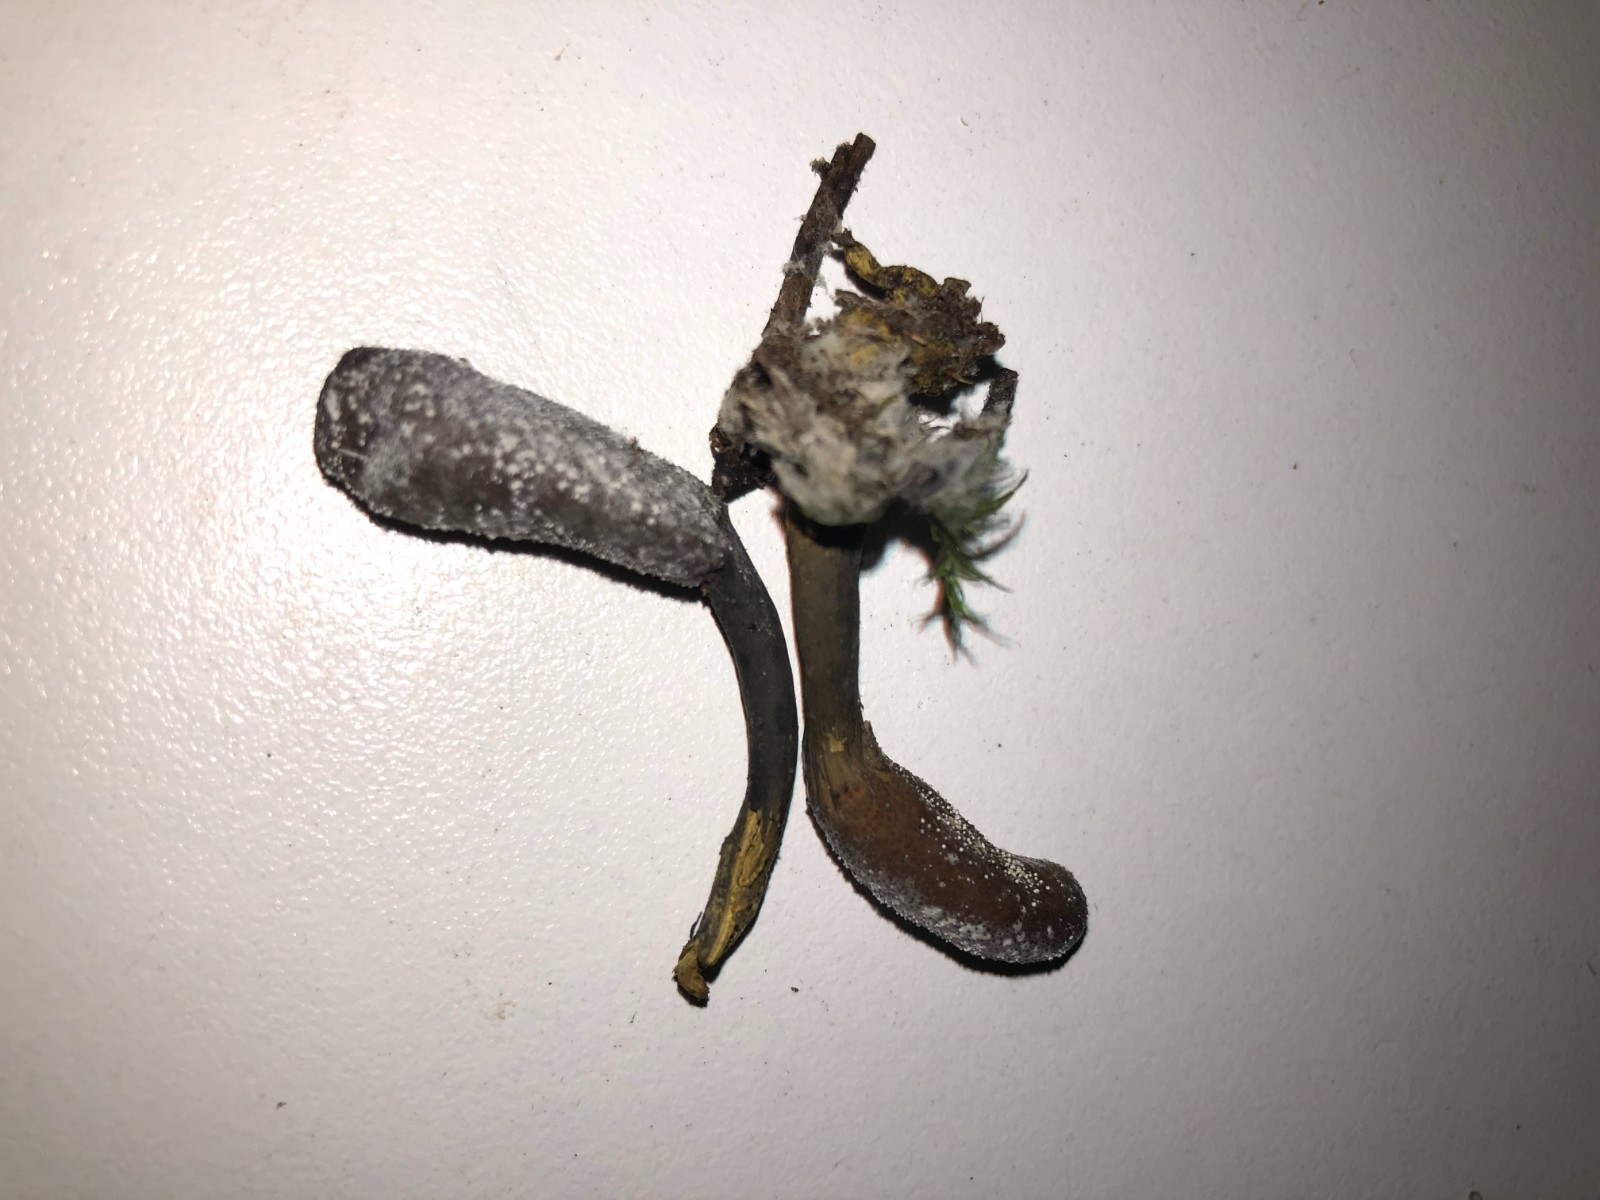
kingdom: Fungi
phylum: Ascomycota
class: Sordariomycetes
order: Hypocreales
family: Ophiocordycipitaceae
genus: Tolypocladium
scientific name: Tolypocladium ophioglossoides
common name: slank snyltekølle
